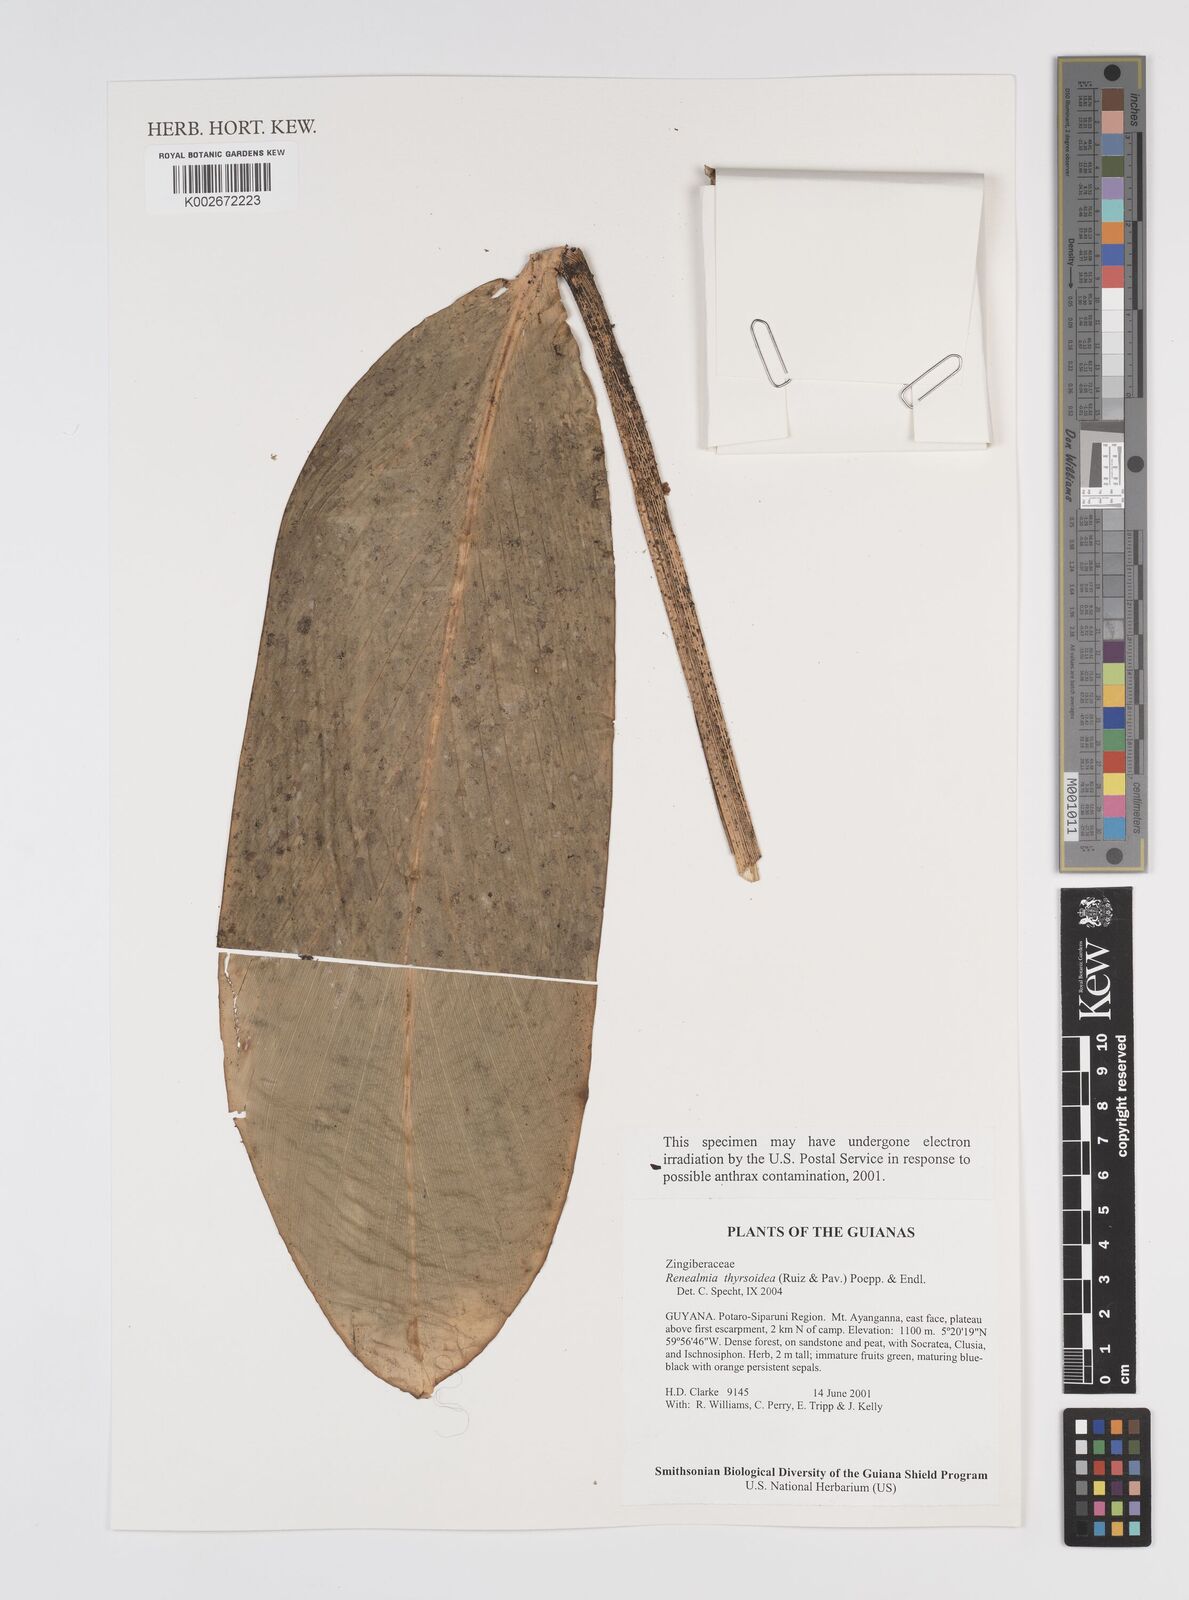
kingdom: Plantae
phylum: Tracheophyta
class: Liliopsida
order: Zingiberales
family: Zingiberaceae
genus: Renealmia
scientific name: Renealmia thyrsoidea
